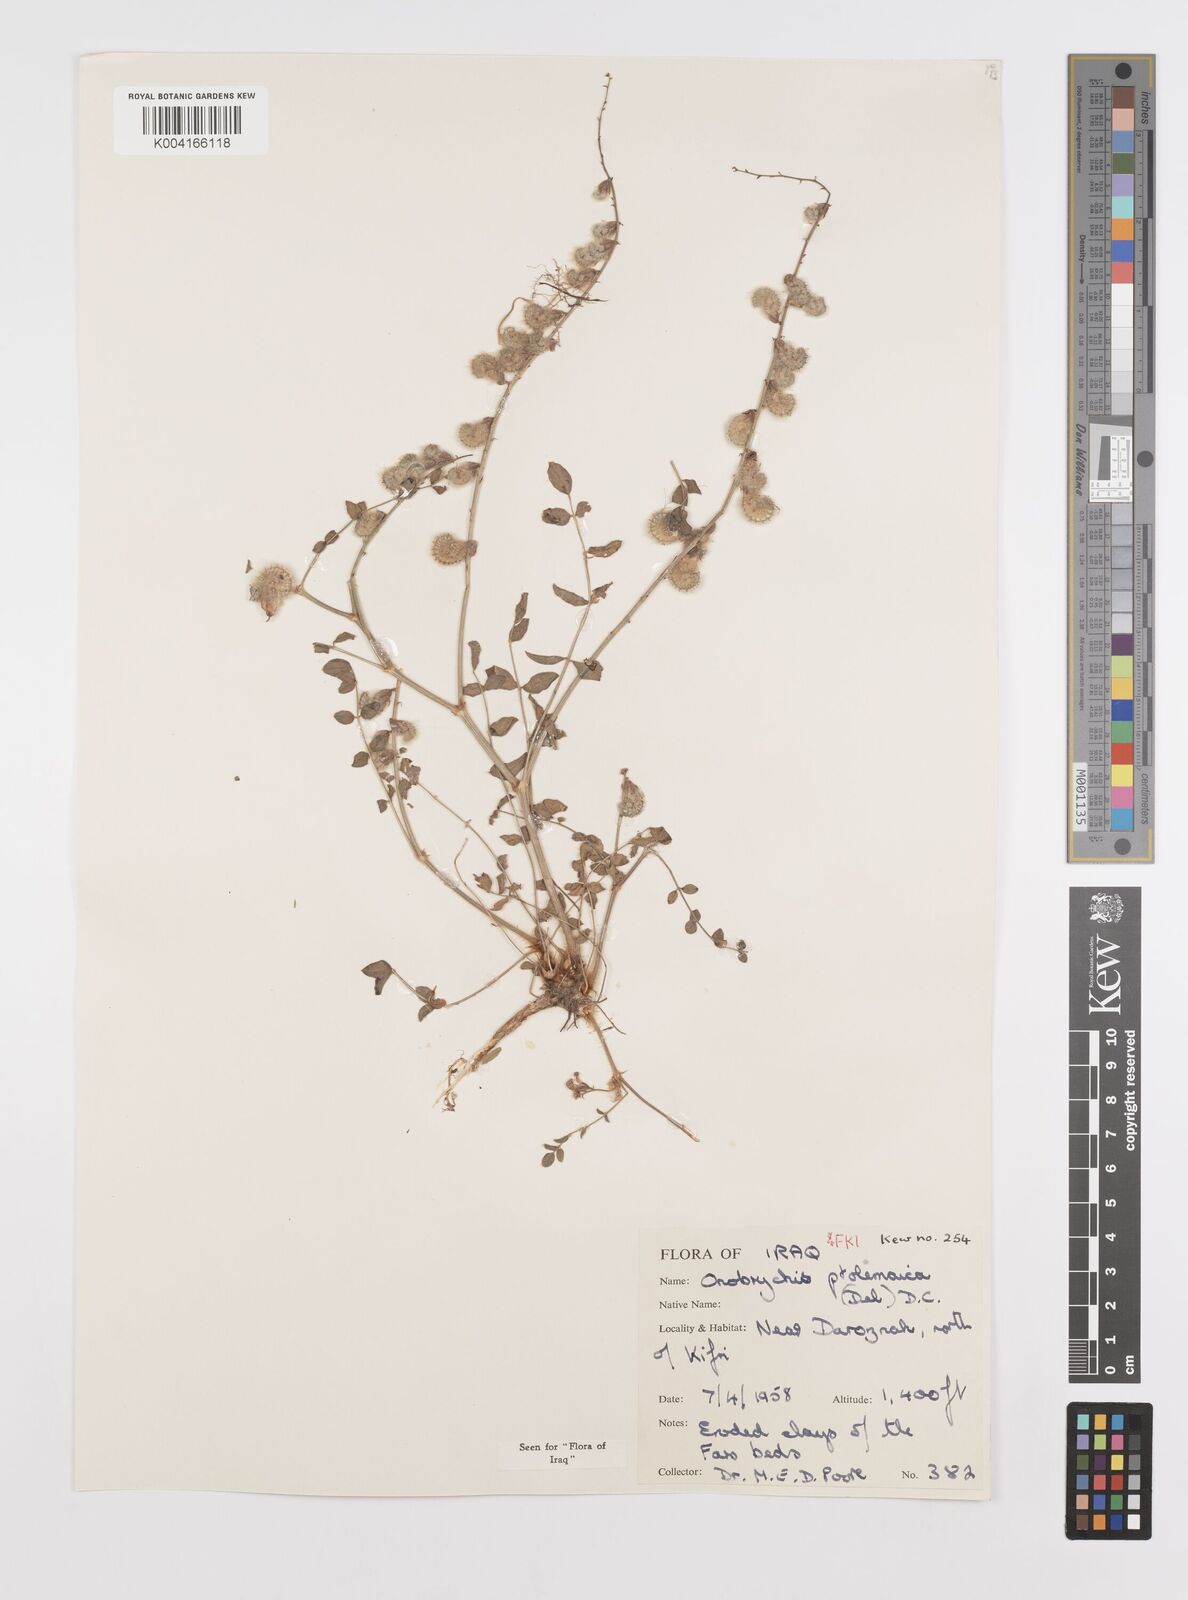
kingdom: Plantae
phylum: Tracheophyta
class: Magnoliopsida
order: Fabales
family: Fabaceae
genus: Onobrychis
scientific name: Onobrychis ptolemaica
